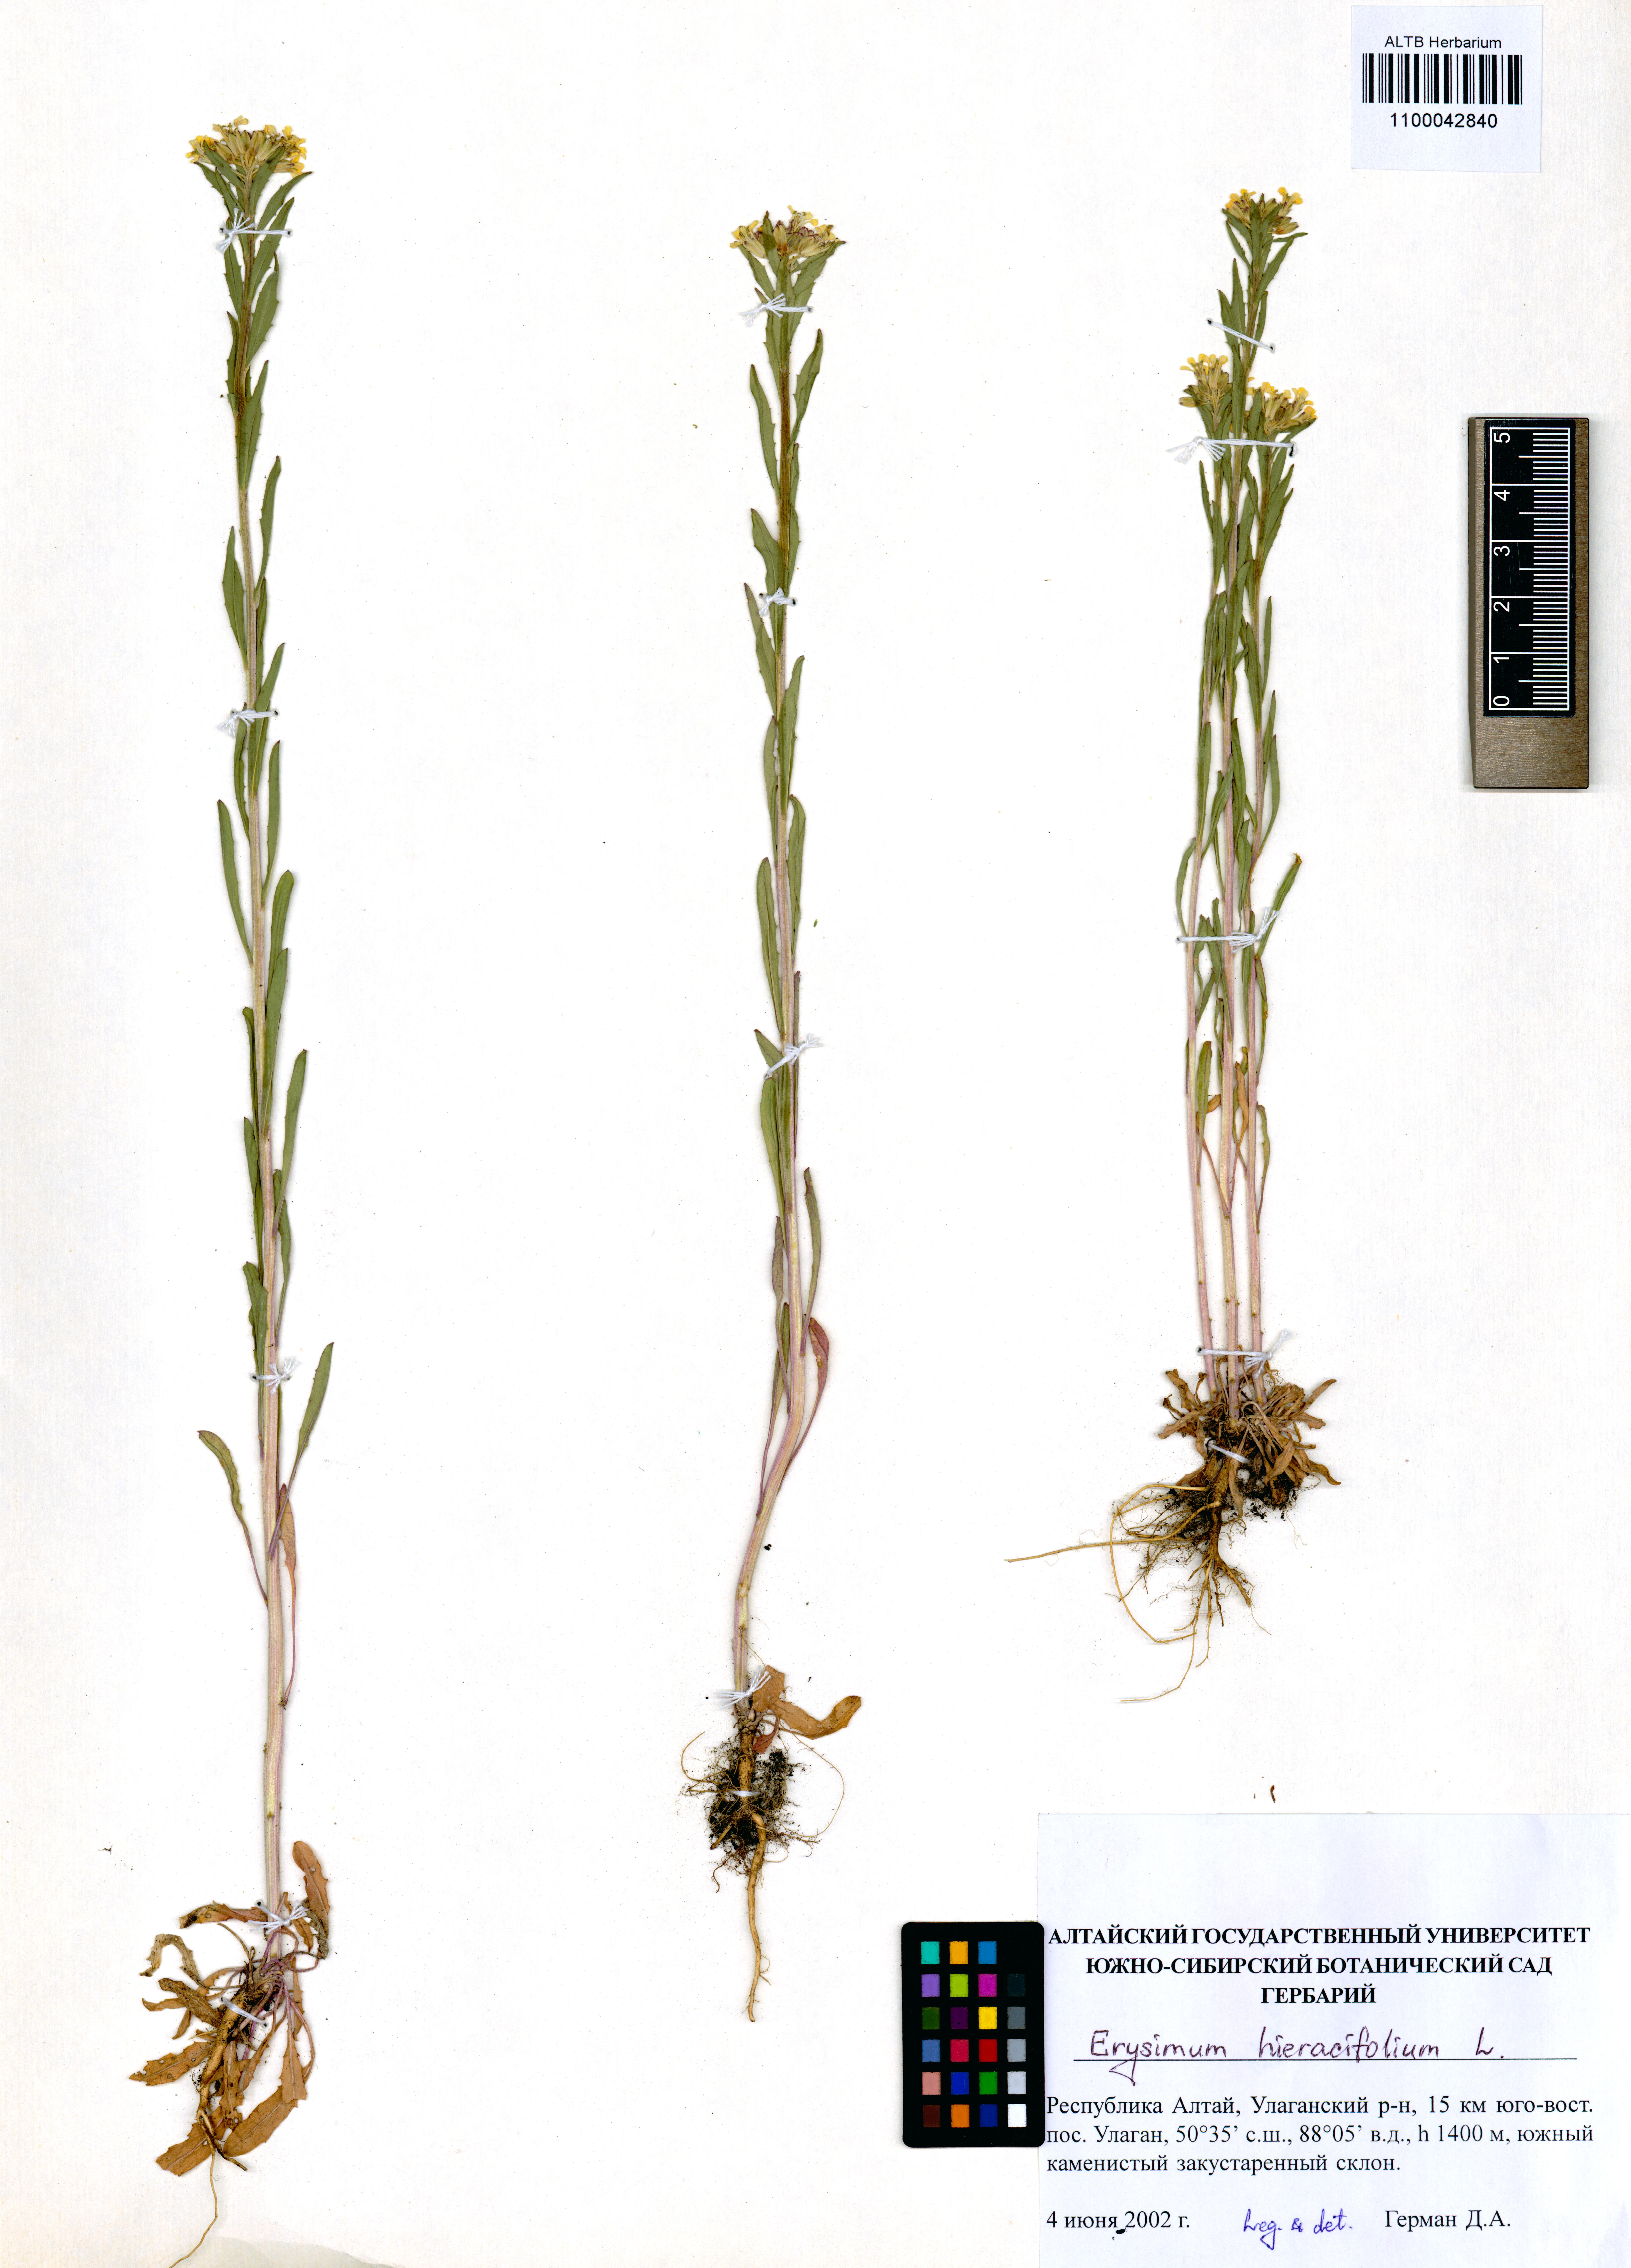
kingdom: Plantae
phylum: Tracheophyta
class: Magnoliopsida
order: Brassicales
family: Brassicaceae
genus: Erysimum
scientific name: Erysimum hieraciifolium
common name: European wallflower
